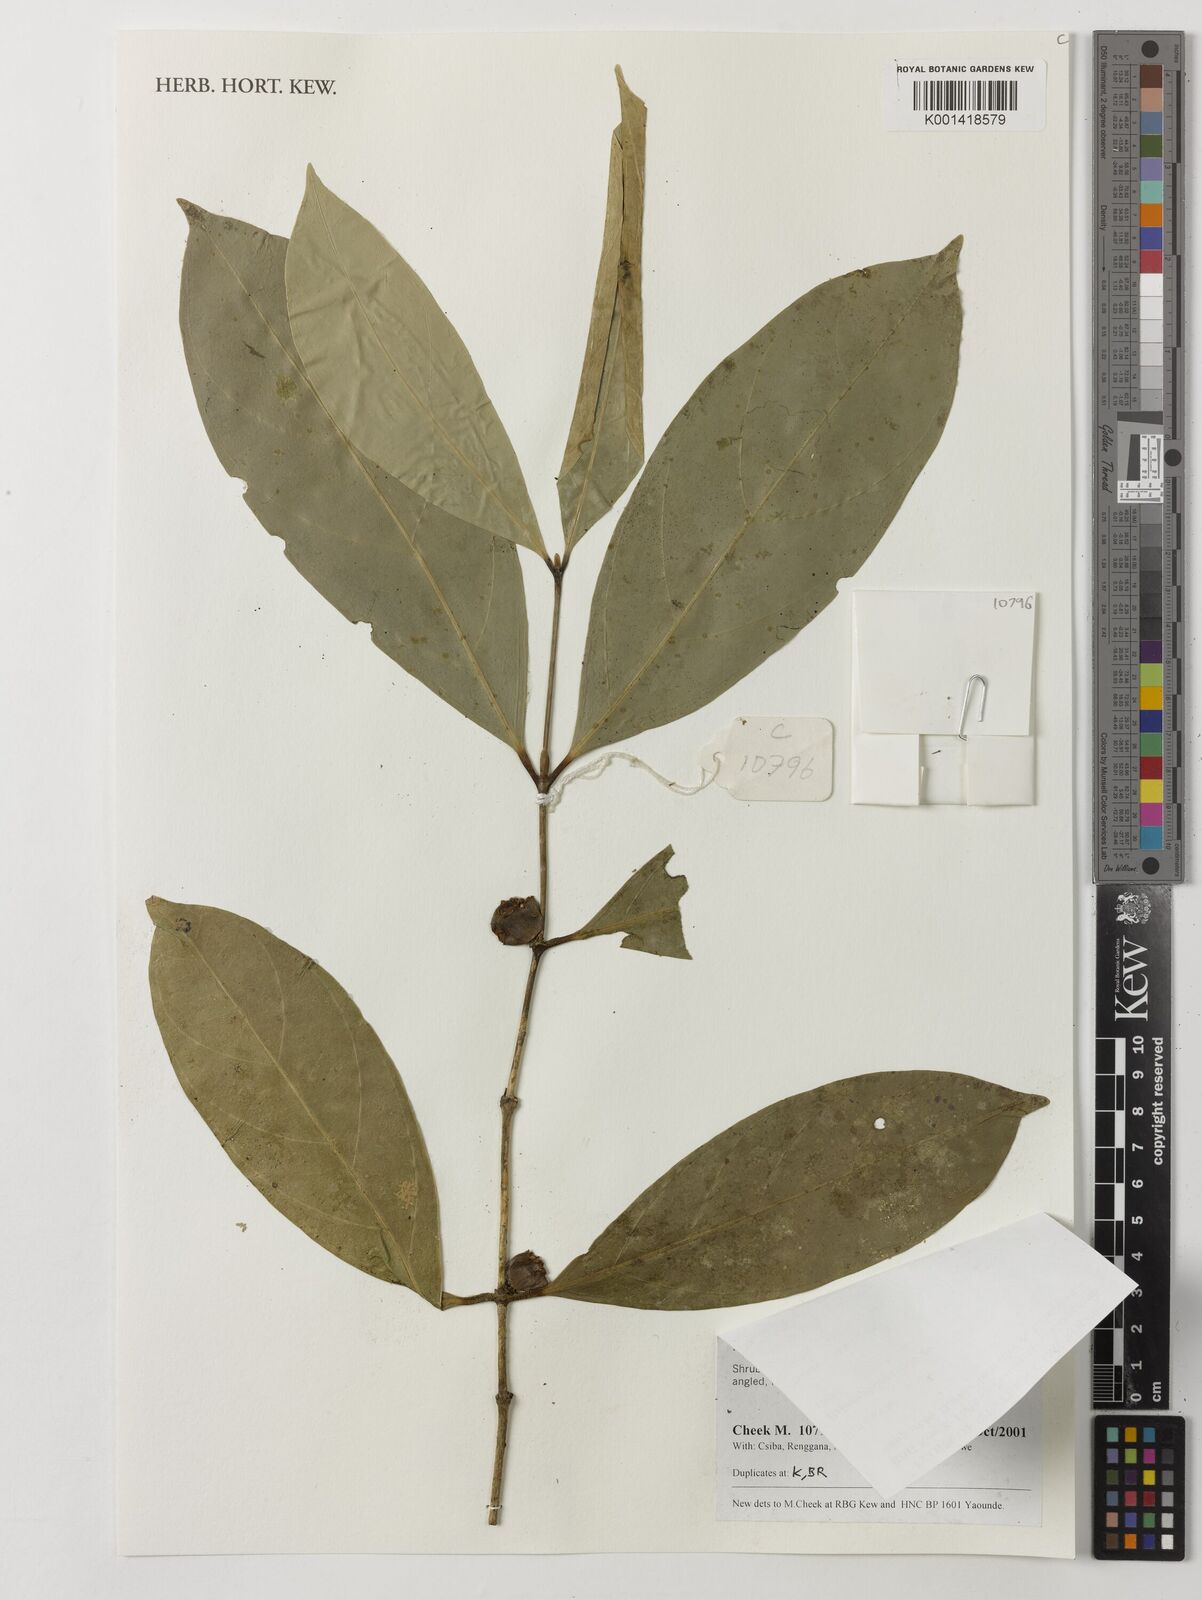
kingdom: Plantae
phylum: Tracheophyta
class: Magnoliopsida
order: Gentianales
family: Rubiaceae
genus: Belonophora
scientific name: Belonophora coriacea
